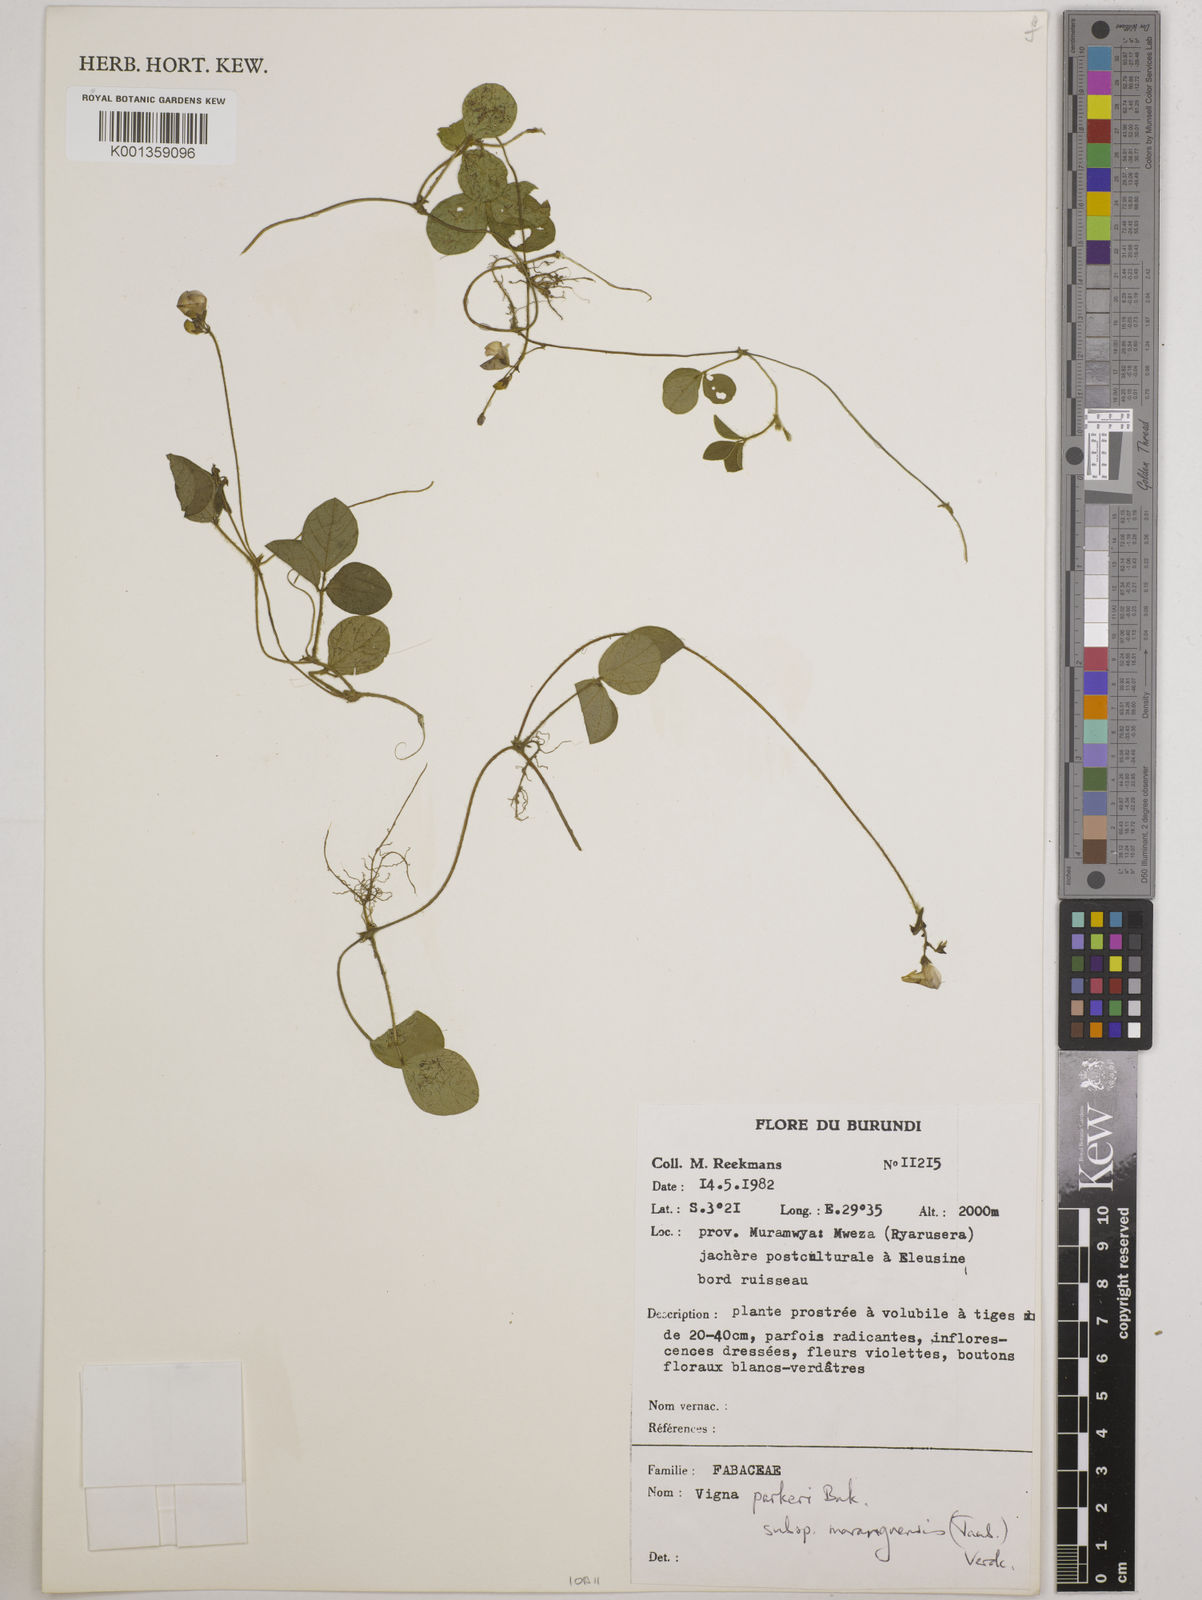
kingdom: Plantae
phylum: Tracheophyta
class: Magnoliopsida
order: Fabales
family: Fabaceae
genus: Vigna
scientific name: Vigna
